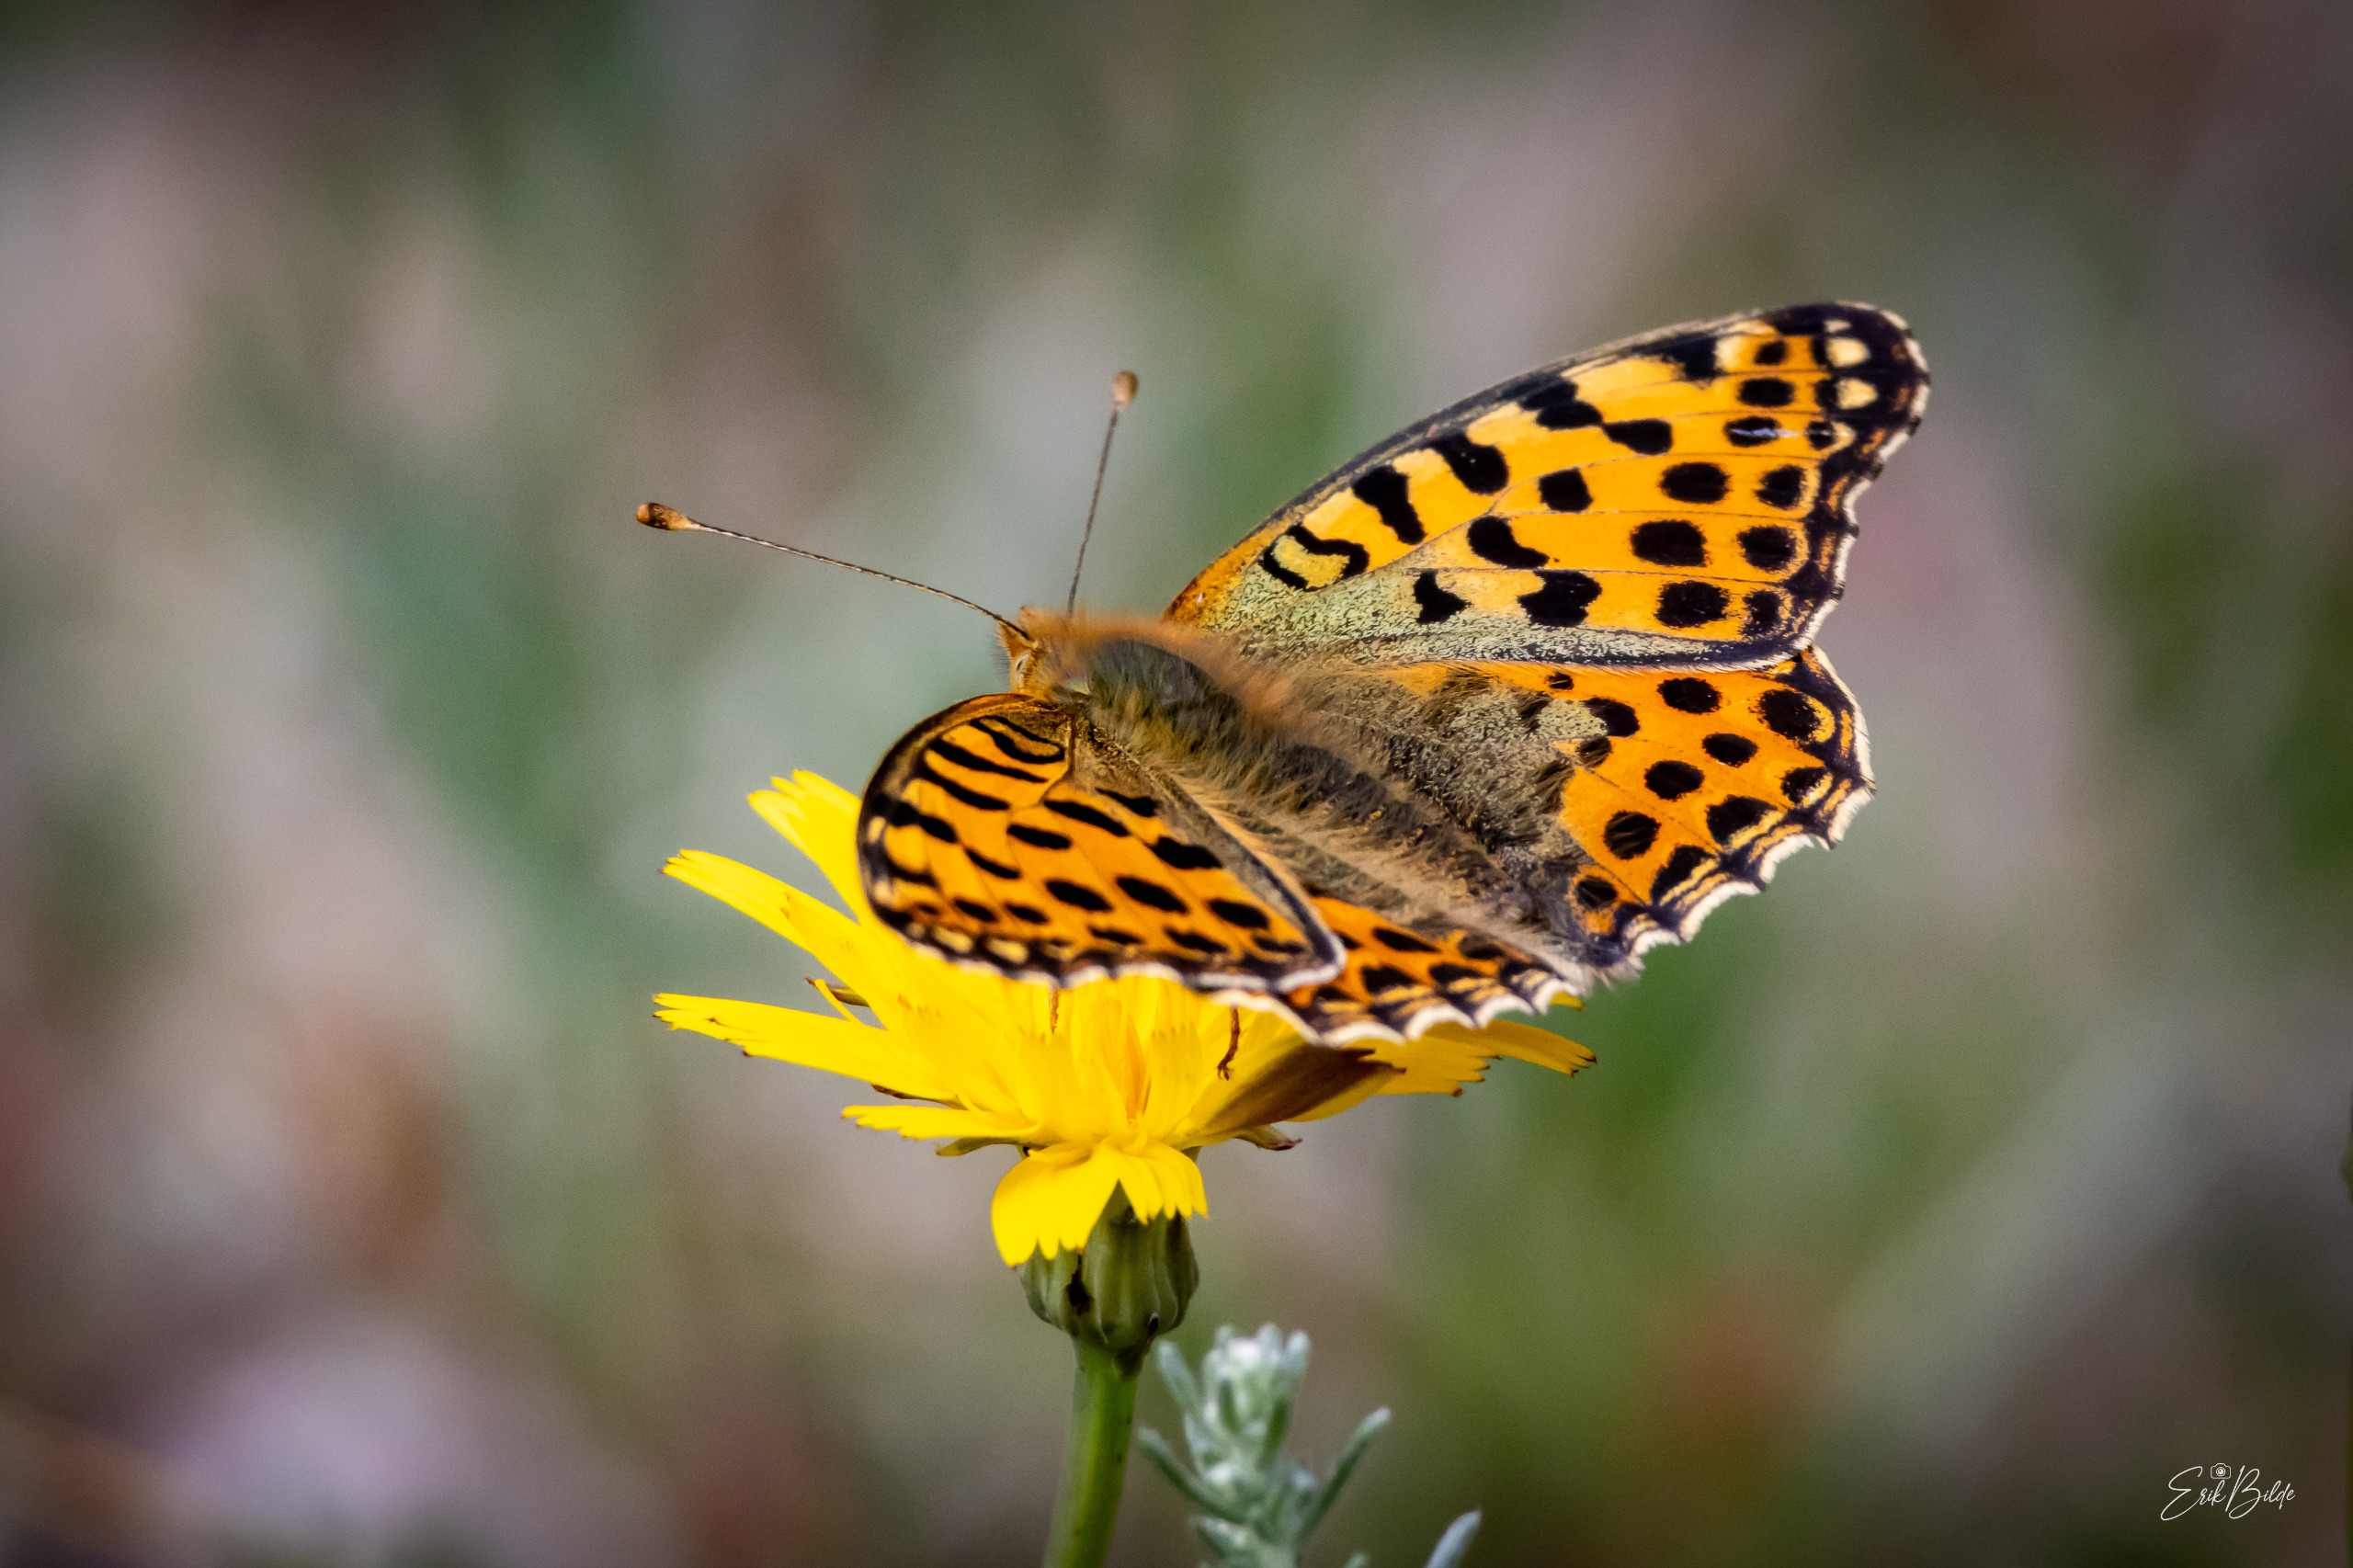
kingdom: Animalia
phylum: Arthropoda
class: Insecta
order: Lepidoptera
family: Nymphalidae
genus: Issoria
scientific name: Issoria lathonia
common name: Storplettet perlemorsommerfugl
